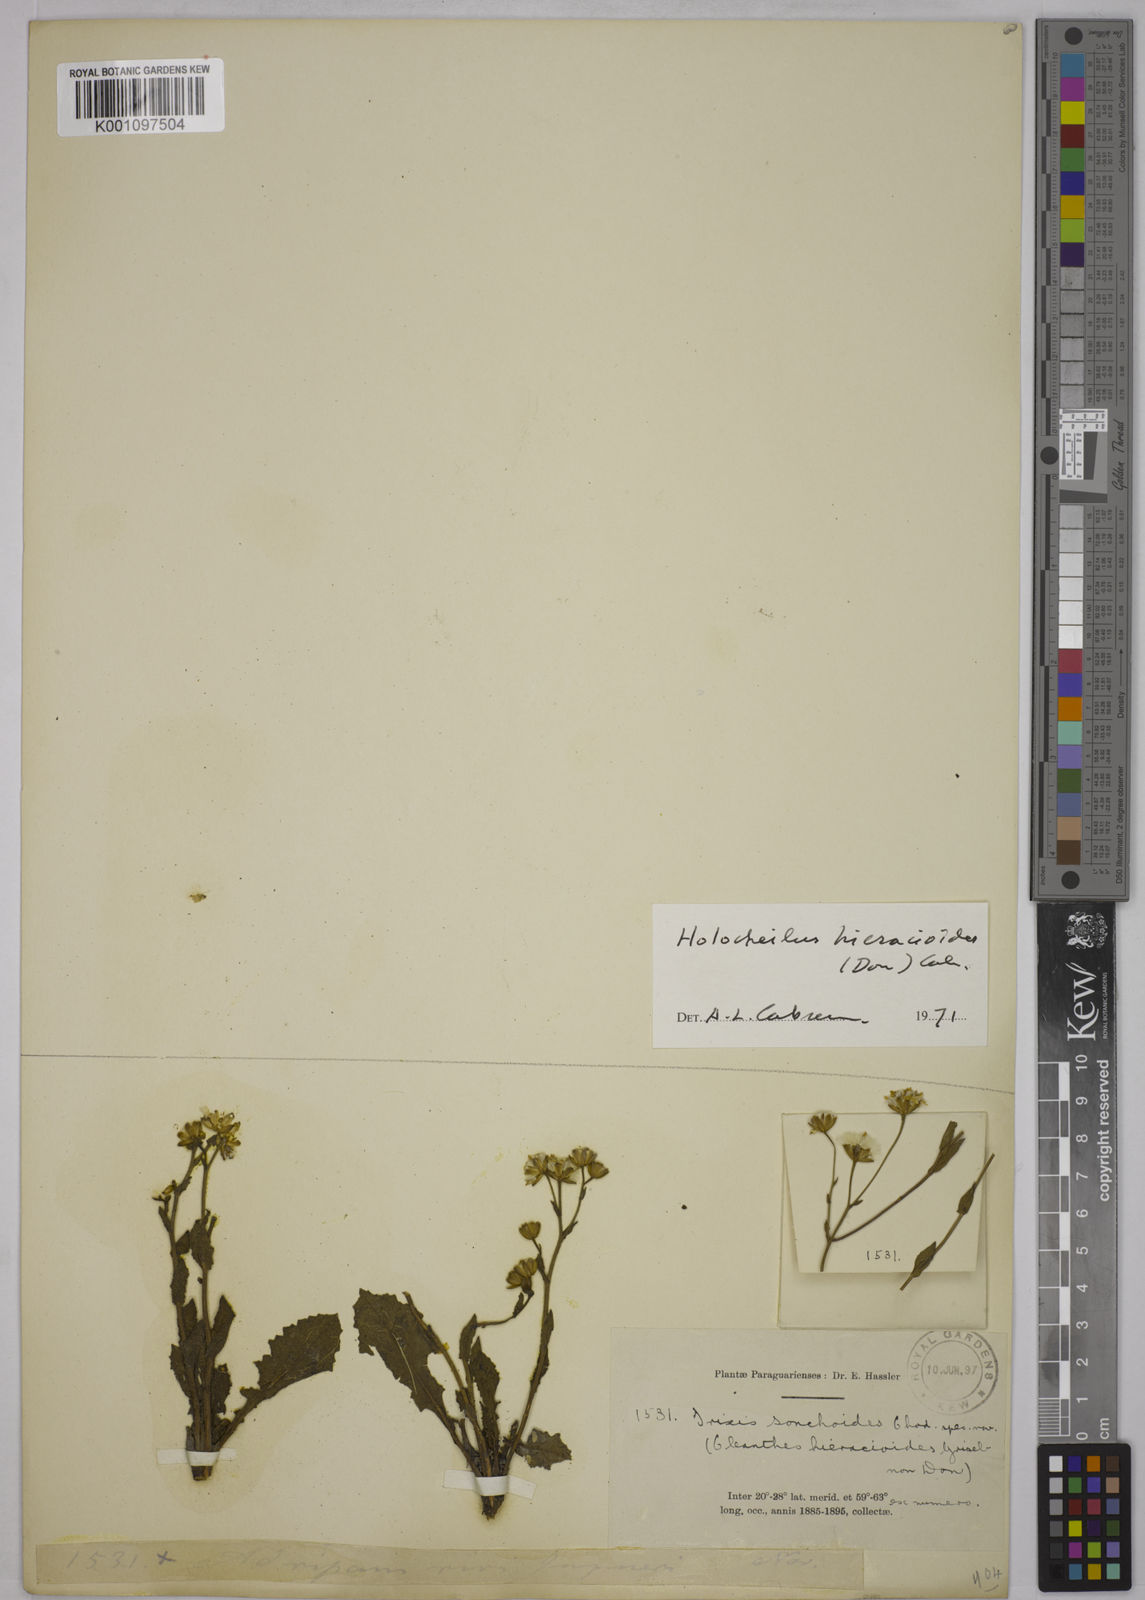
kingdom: Plantae
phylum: Tracheophyta
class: Magnoliopsida
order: Asterales
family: Asteraceae
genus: Holocheilus
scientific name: Holocheilus hieracioides
